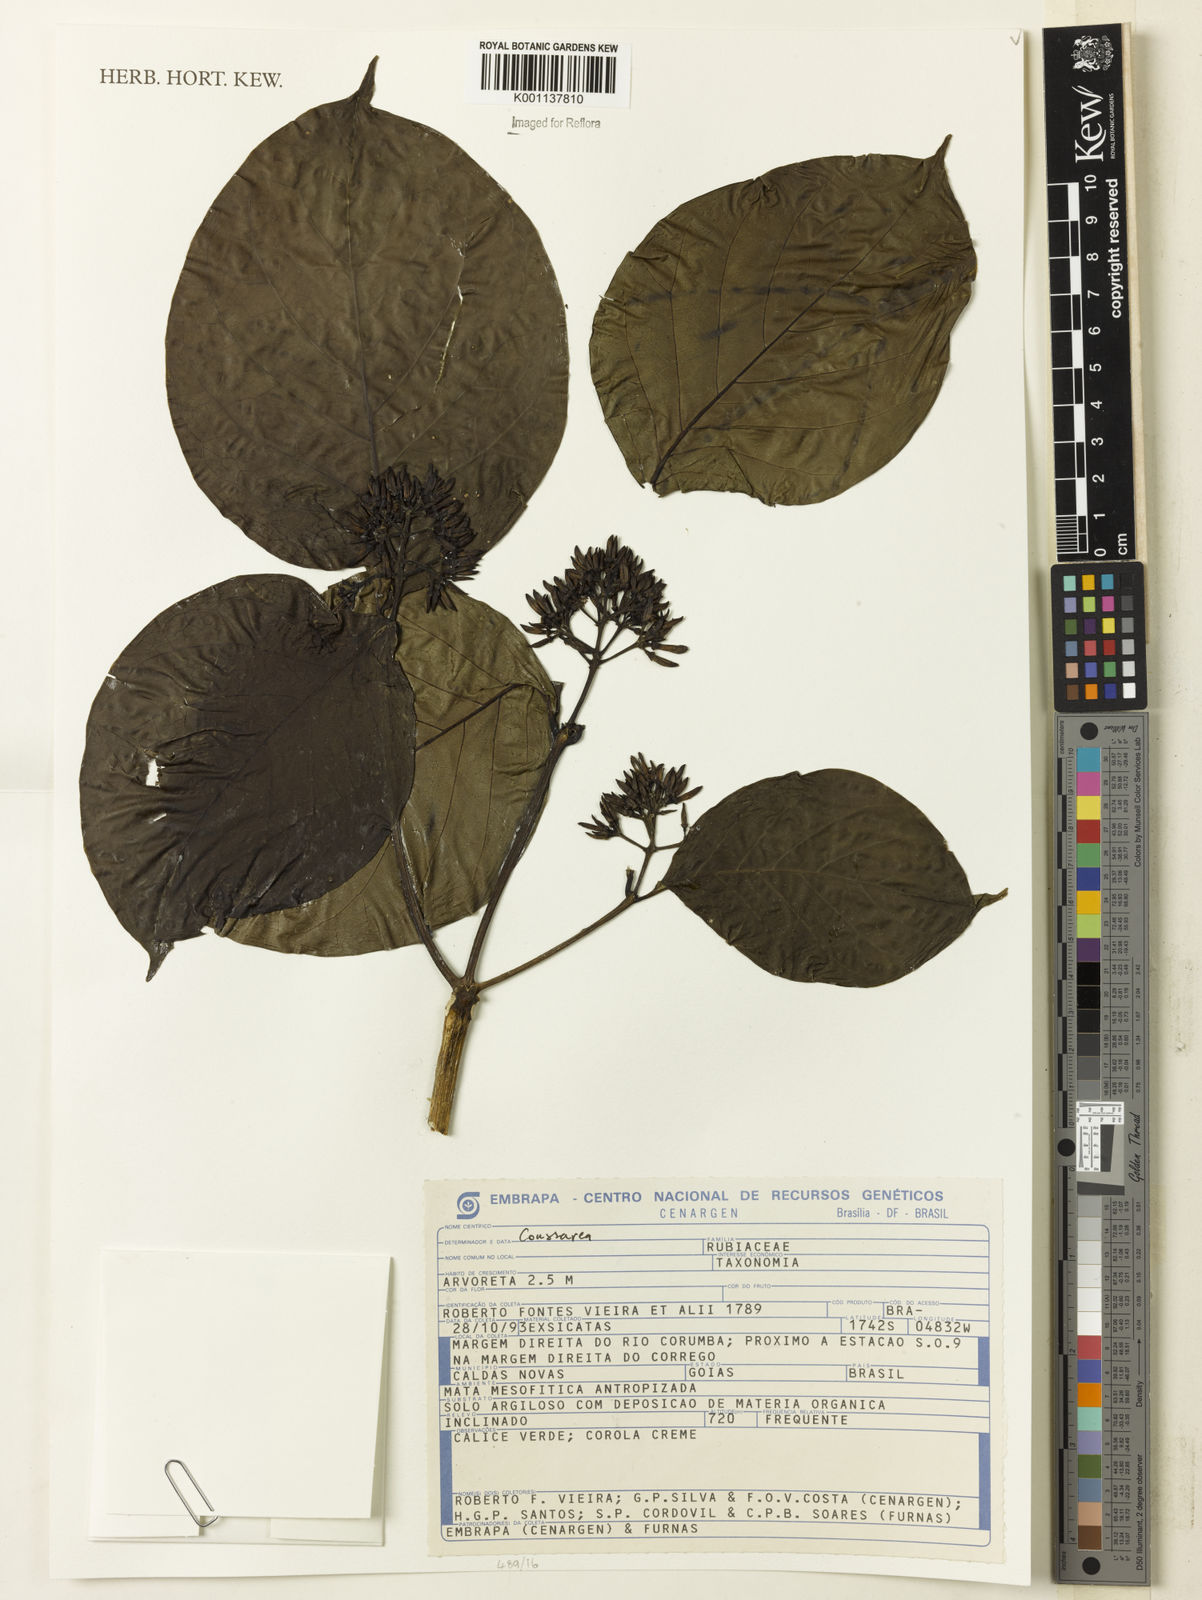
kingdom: Plantae
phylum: Tracheophyta
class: Magnoliopsida
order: Gentianales
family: Rubiaceae
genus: Coussarea
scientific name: Coussarea
